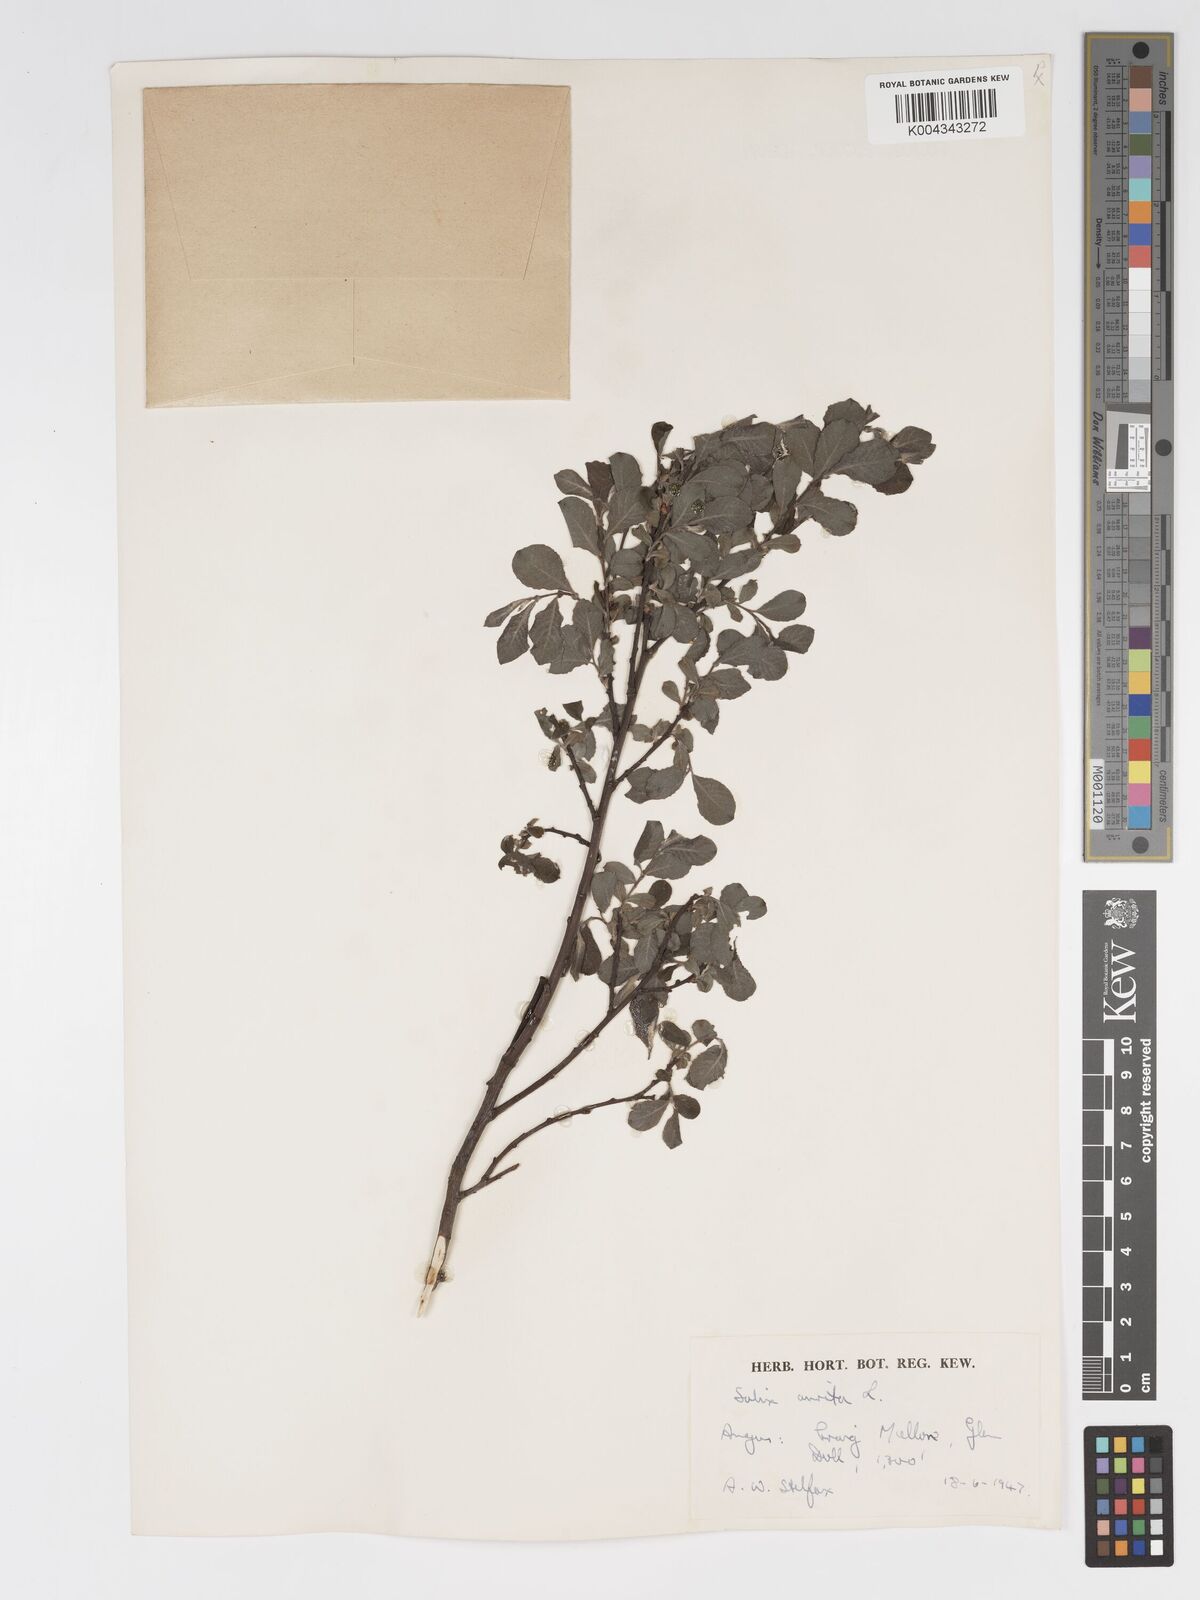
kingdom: Plantae
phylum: Tracheophyta
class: Magnoliopsida
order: Malpighiales
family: Salicaceae
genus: Salix
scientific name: Salix aurita
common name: Eared willow
